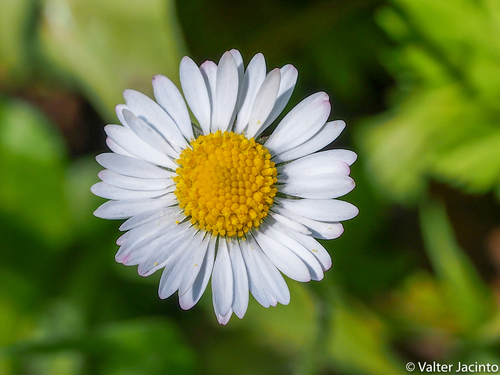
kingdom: Plantae
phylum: Tracheophyta
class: Magnoliopsida
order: Asterales
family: Asteraceae
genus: Bellis
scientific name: Bellis perennis
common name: Lawndaisy
